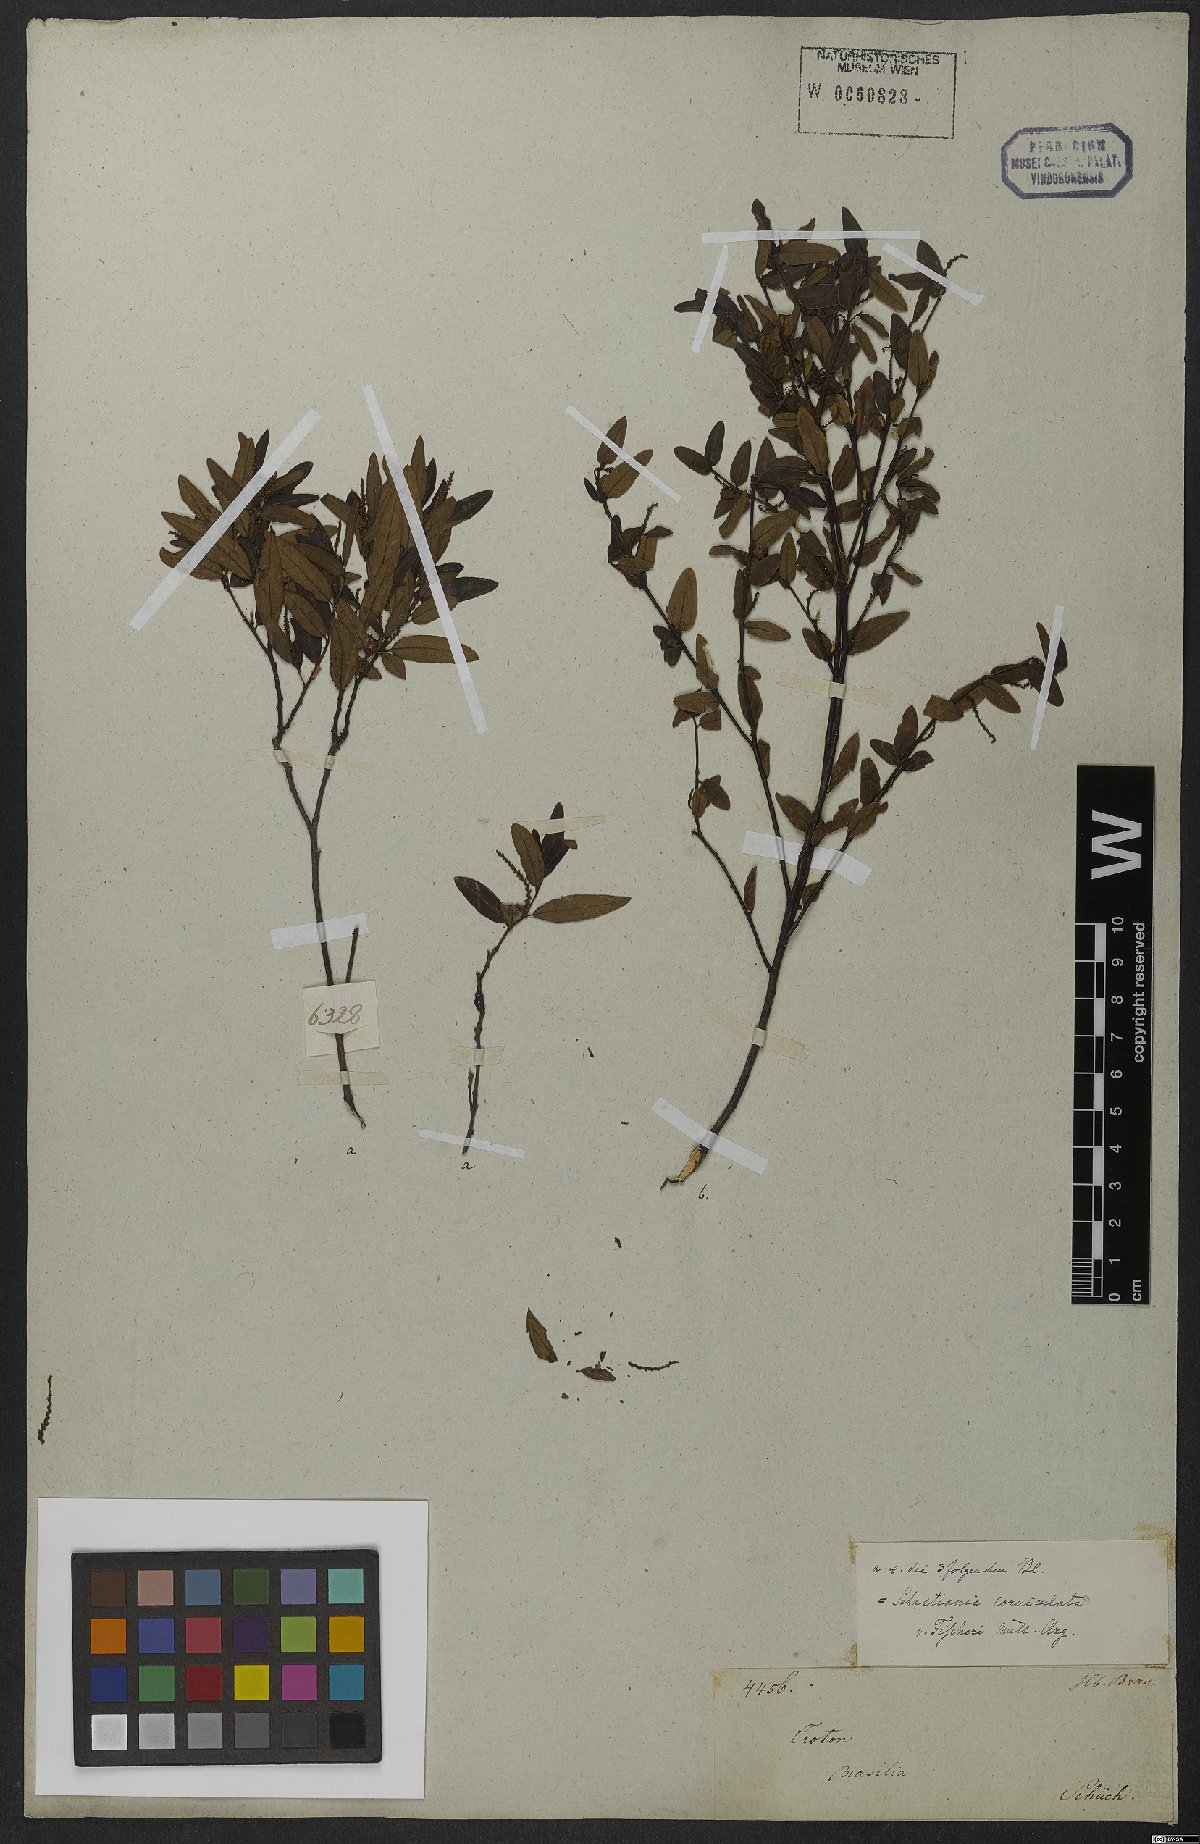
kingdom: Plantae
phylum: Tracheophyta
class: Magnoliopsida
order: Malpighiales
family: Euphorbiaceae
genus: Microstachys
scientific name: Microstachys salicifolia
